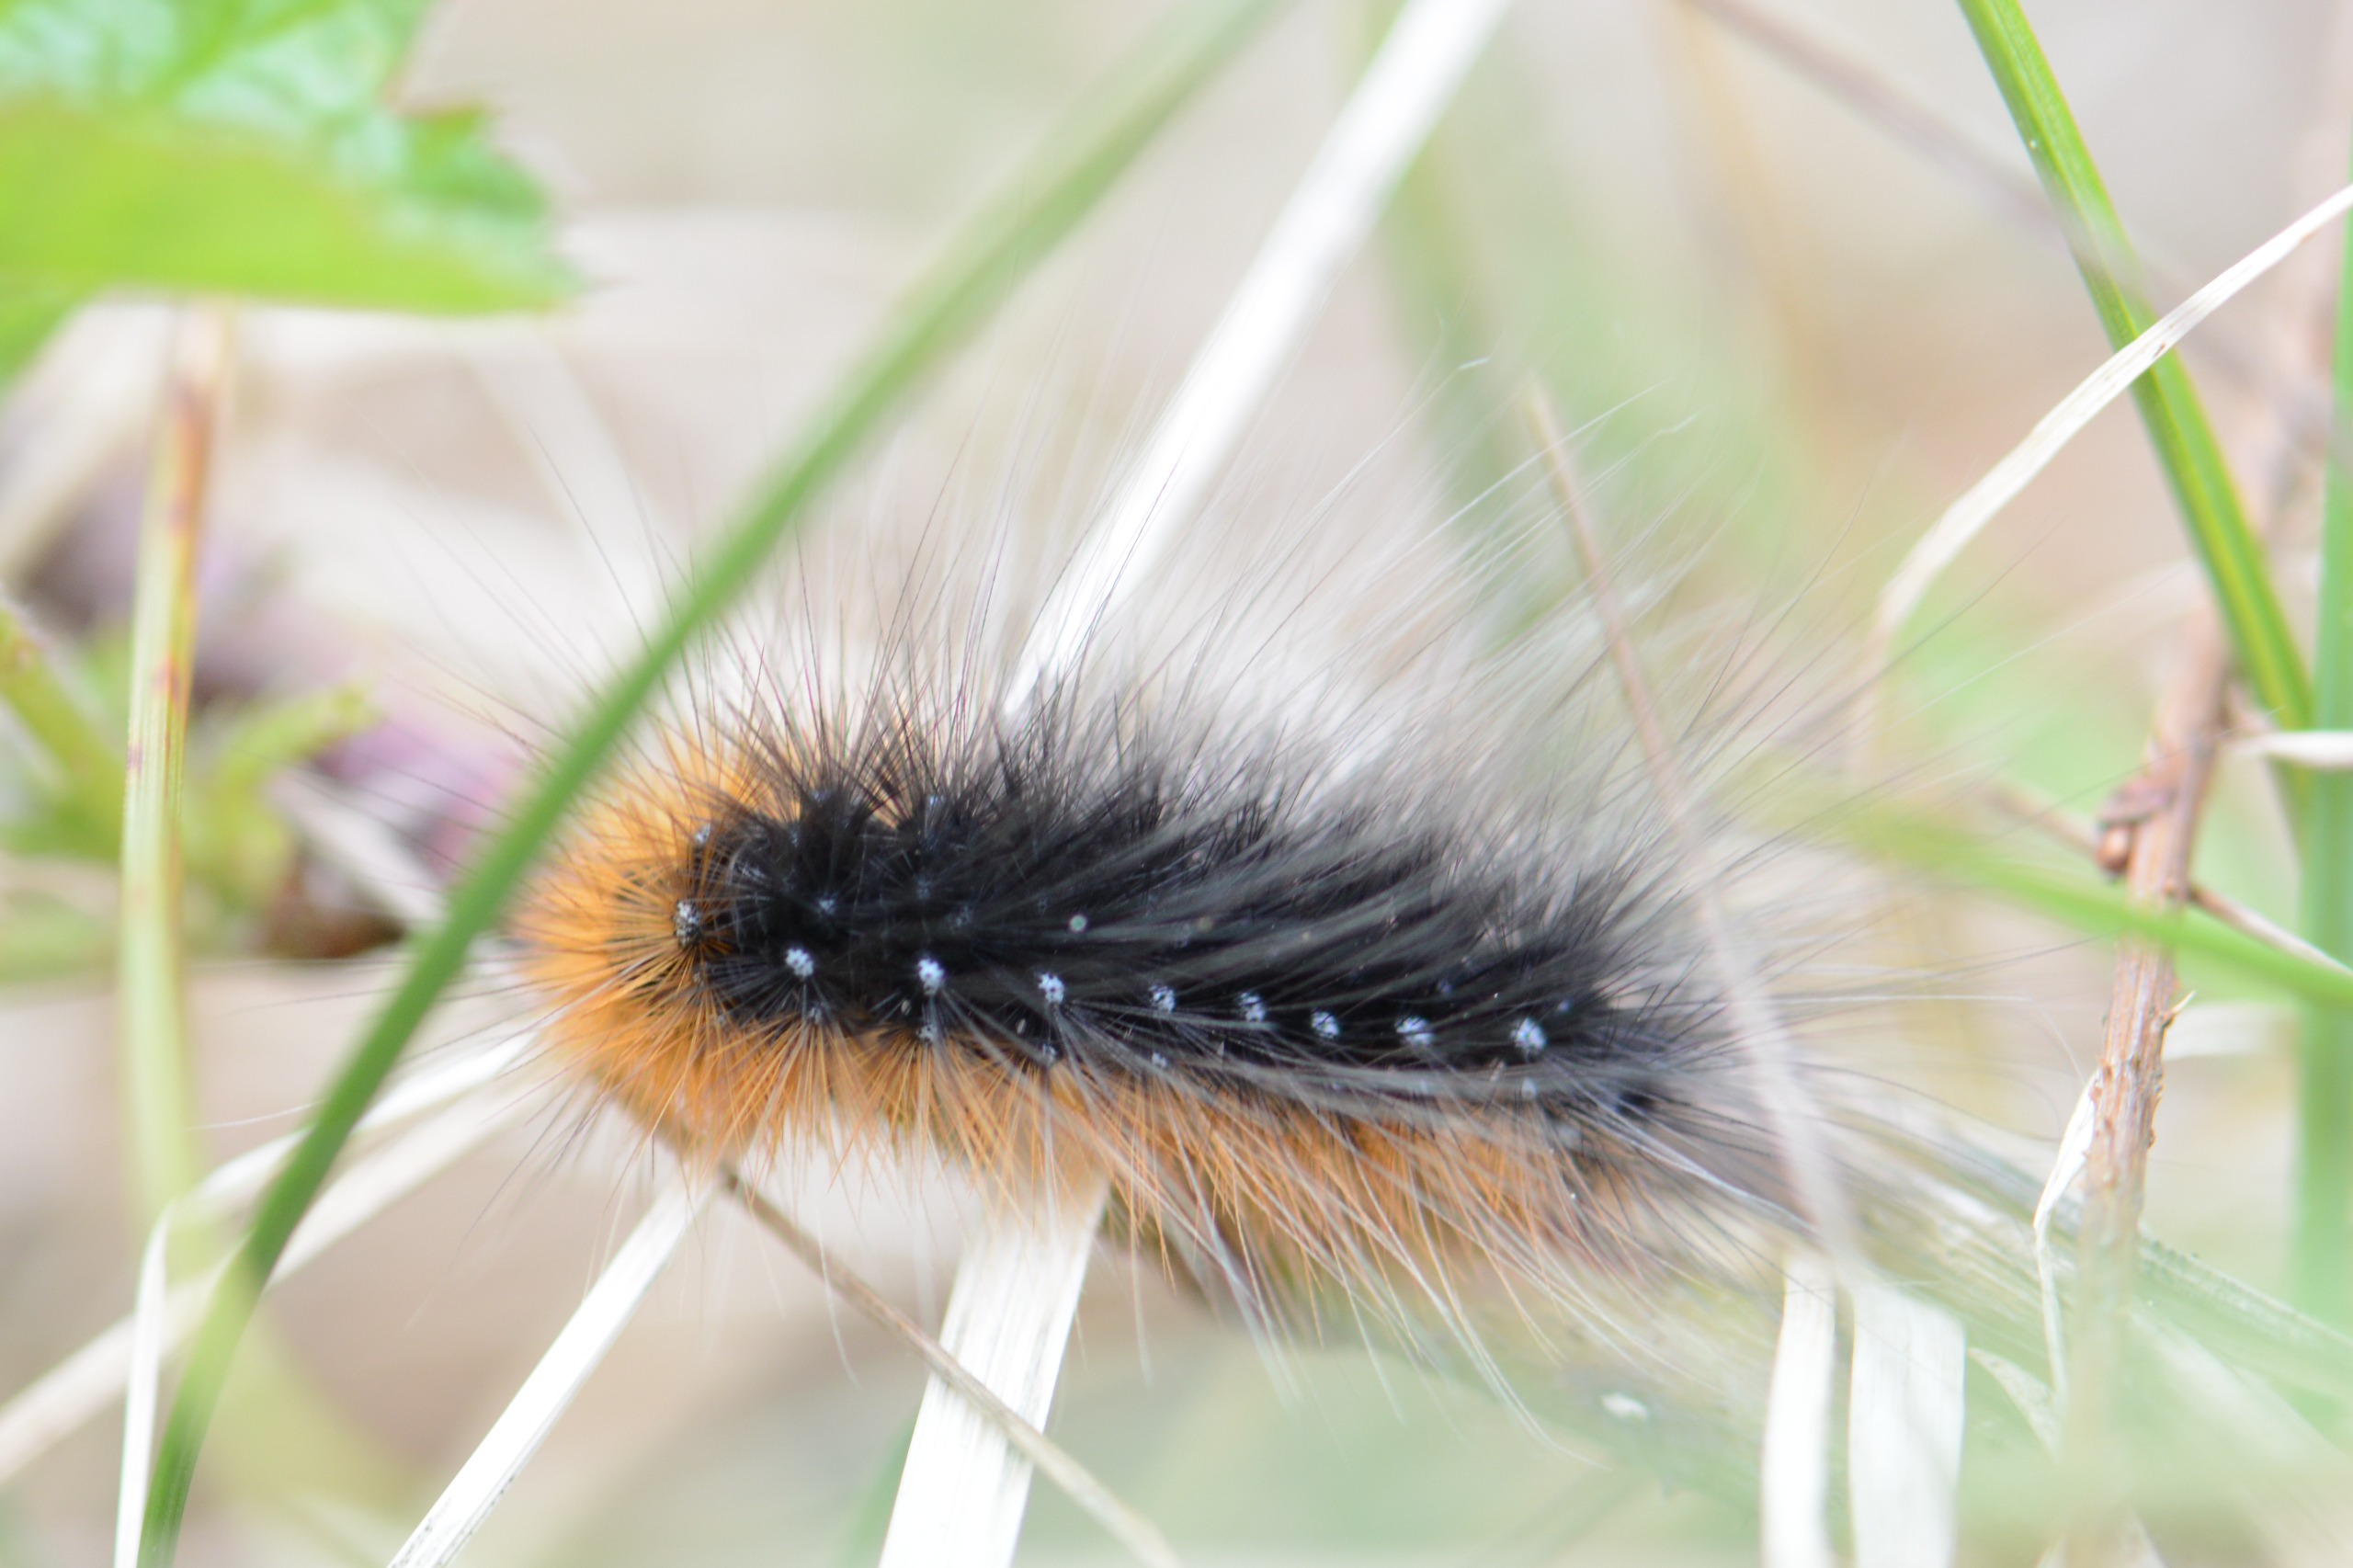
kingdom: Animalia
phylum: Arthropoda
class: Insecta
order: Lepidoptera
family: Erebidae
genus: Arctia
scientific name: Arctia caja
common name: Brun bjørn
